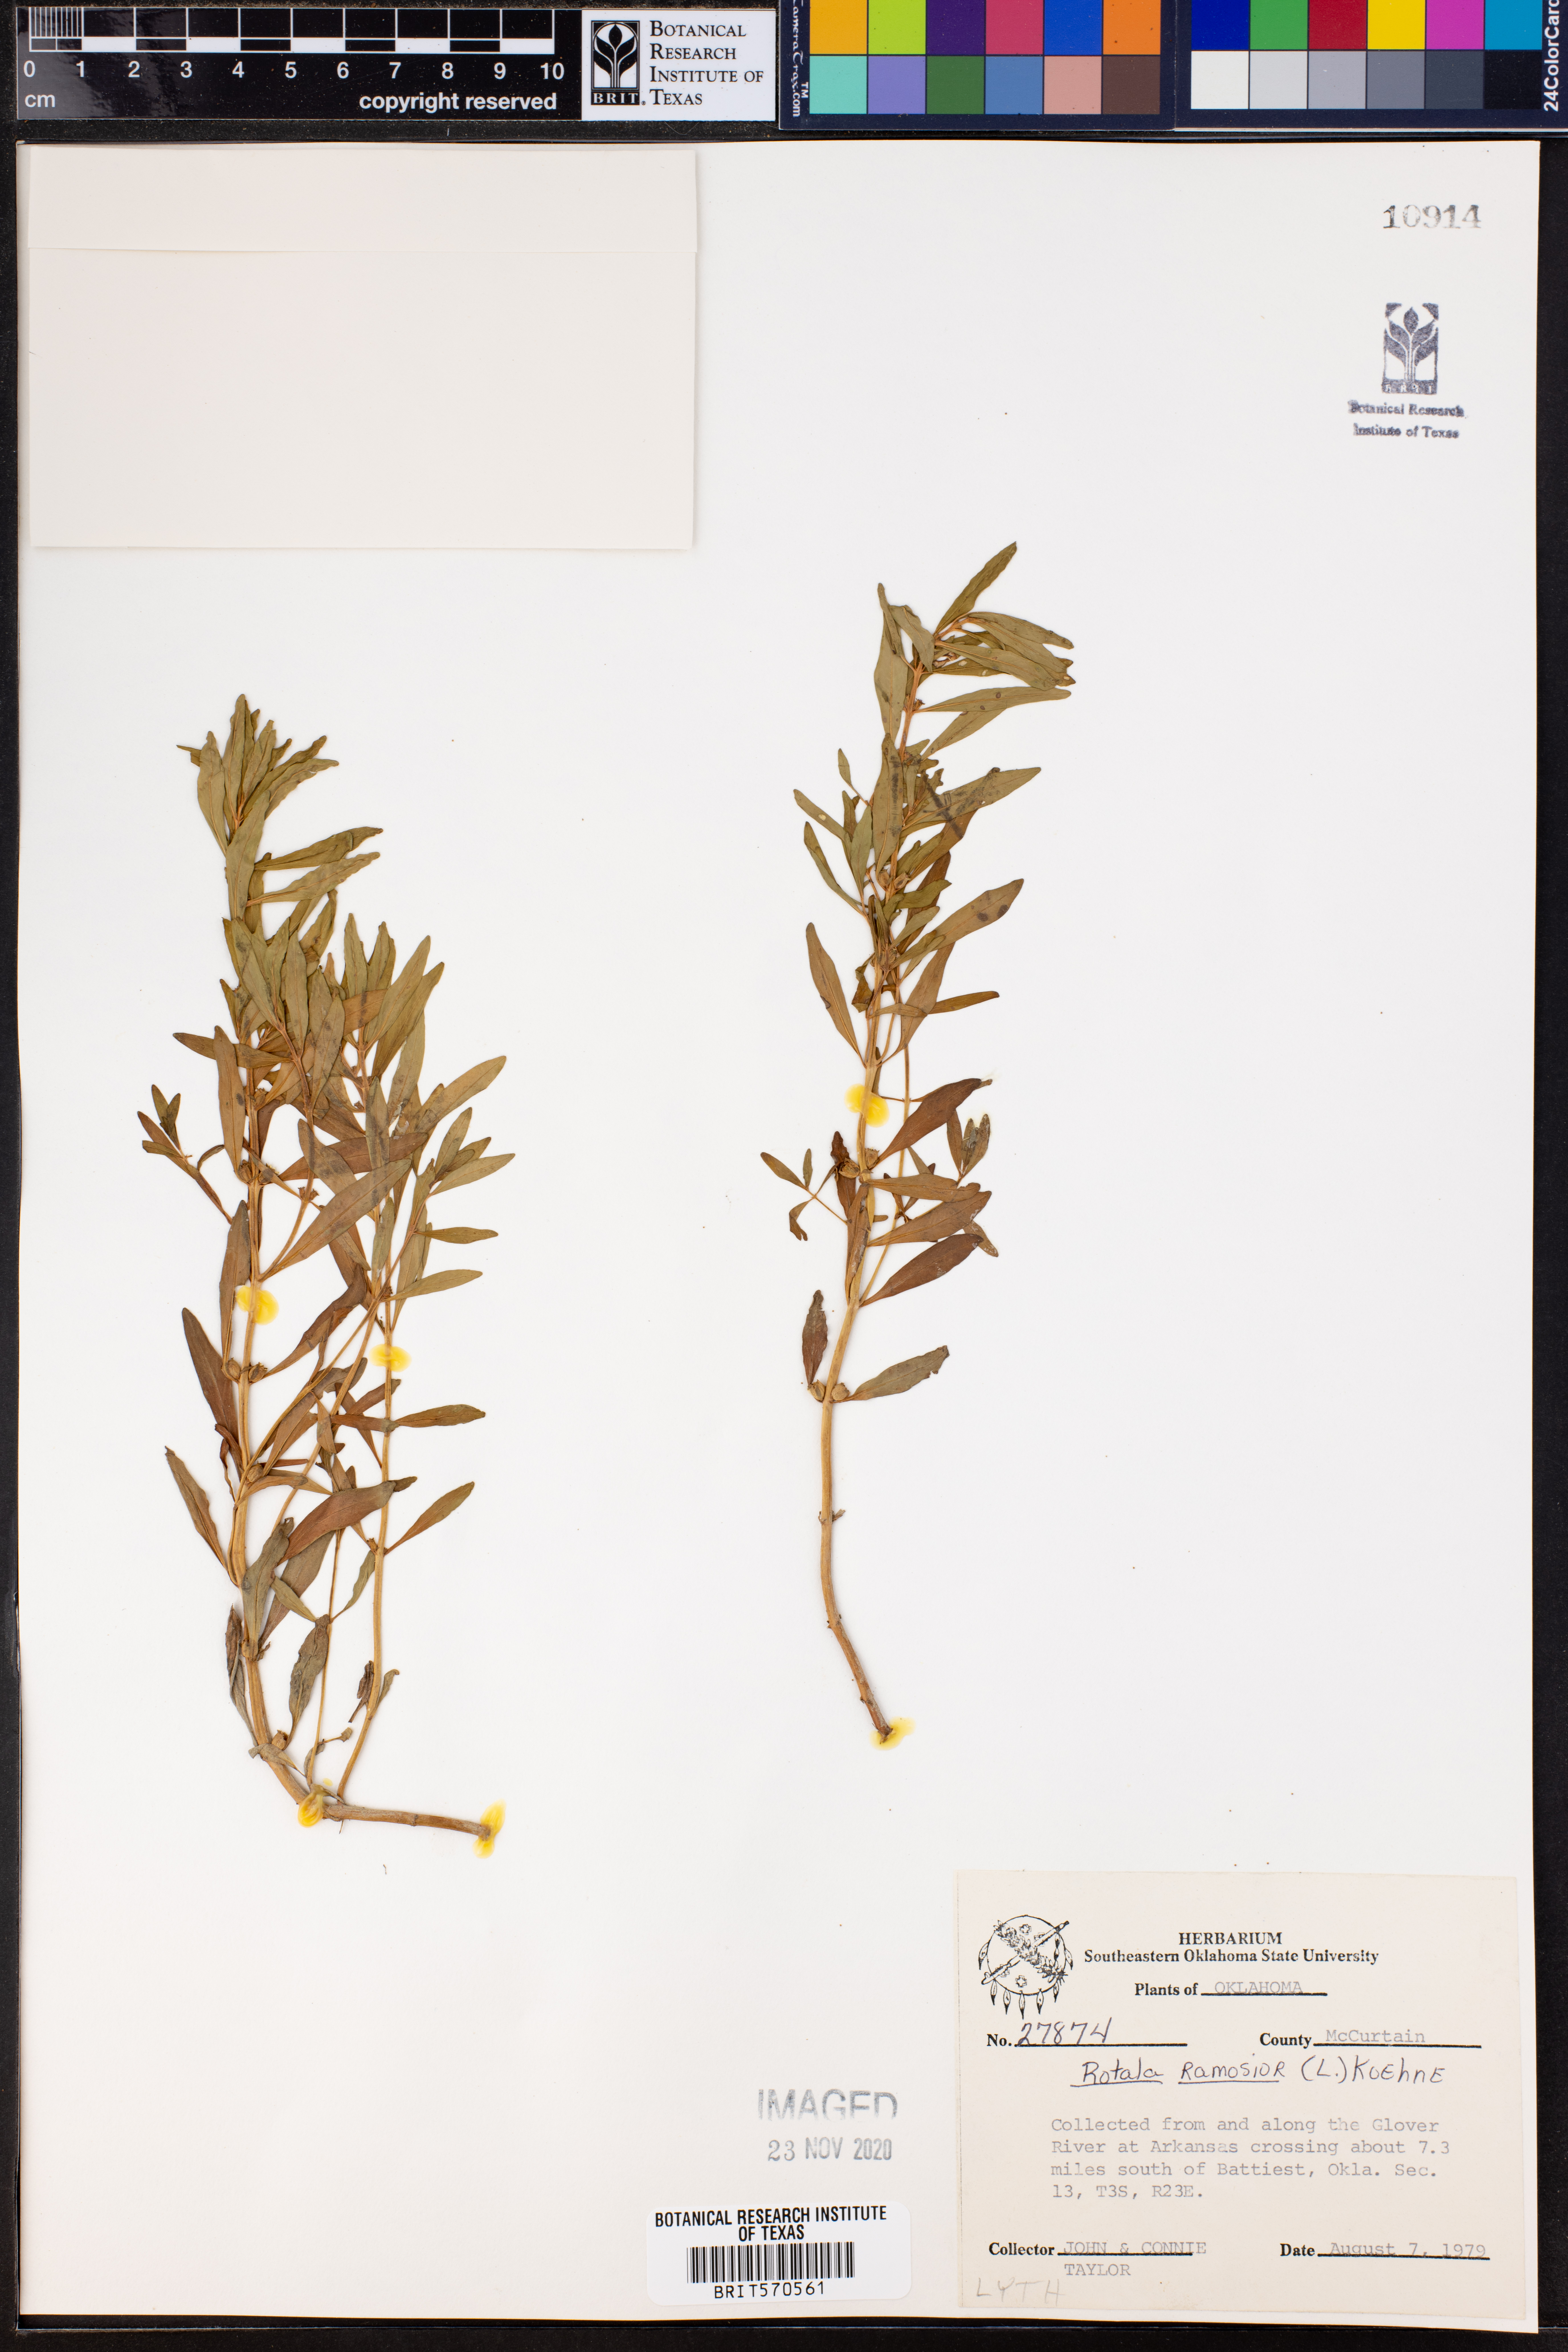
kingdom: Plantae
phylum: Tracheophyta
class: Magnoliopsida
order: Myrtales
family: Lythraceae
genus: Rotala
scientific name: Rotala ramosior
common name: Lowland rotala
